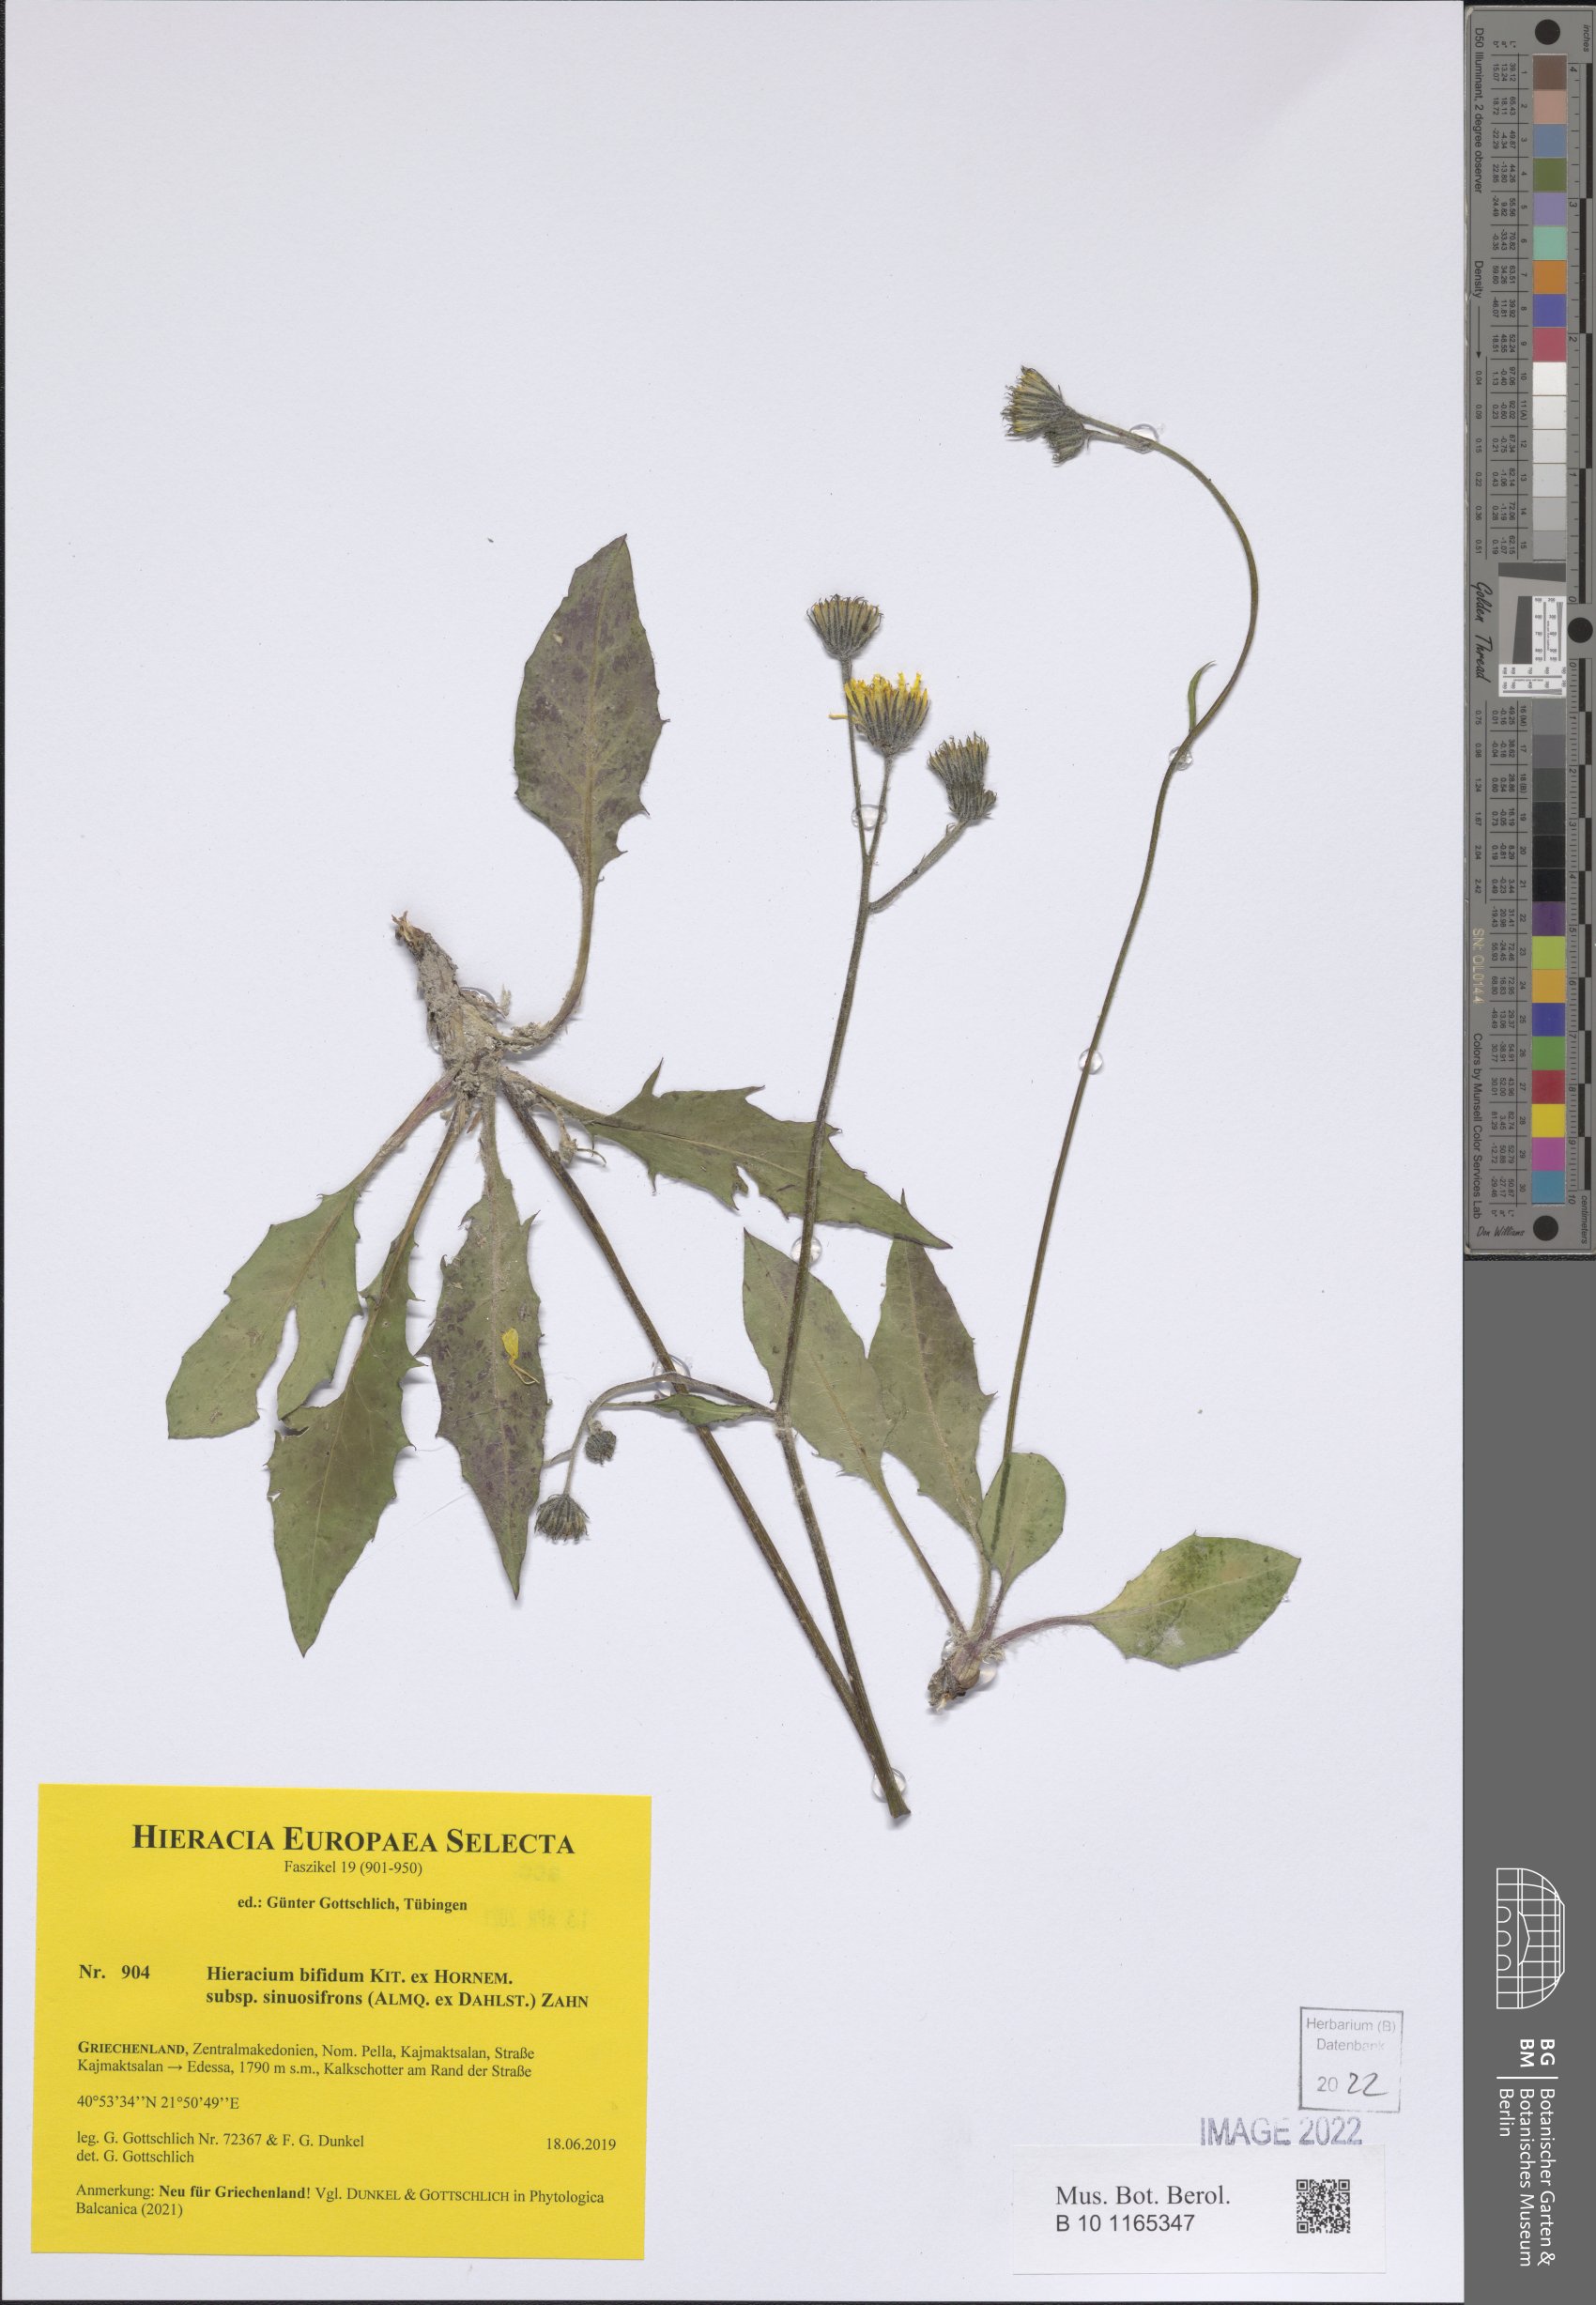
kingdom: Plantae
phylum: Tracheophyta
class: Magnoliopsida
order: Asterales
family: Asteraceae
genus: Hieracium
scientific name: Hieracium bifidum
